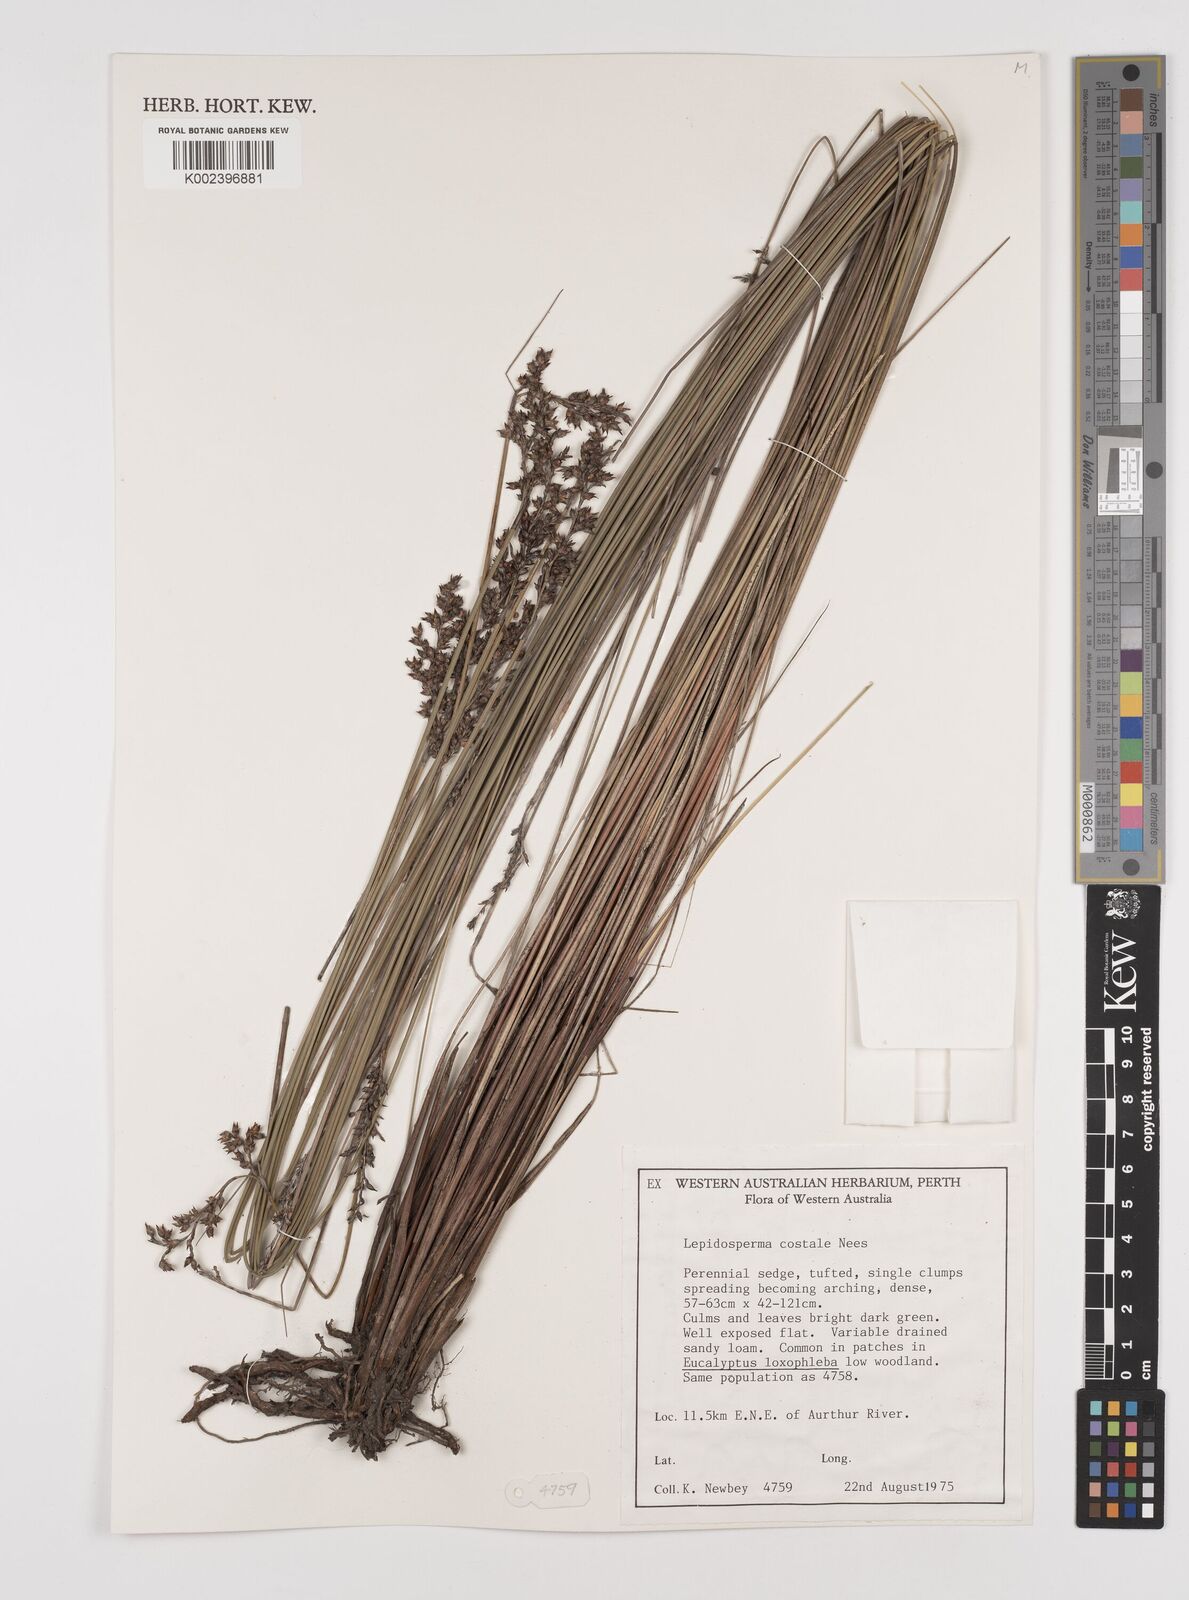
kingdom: Plantae
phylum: Tracheophyta
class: Liliopsida
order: Poales
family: Cyperaceae
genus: Lepidosperma
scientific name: Lepidosperma costale
